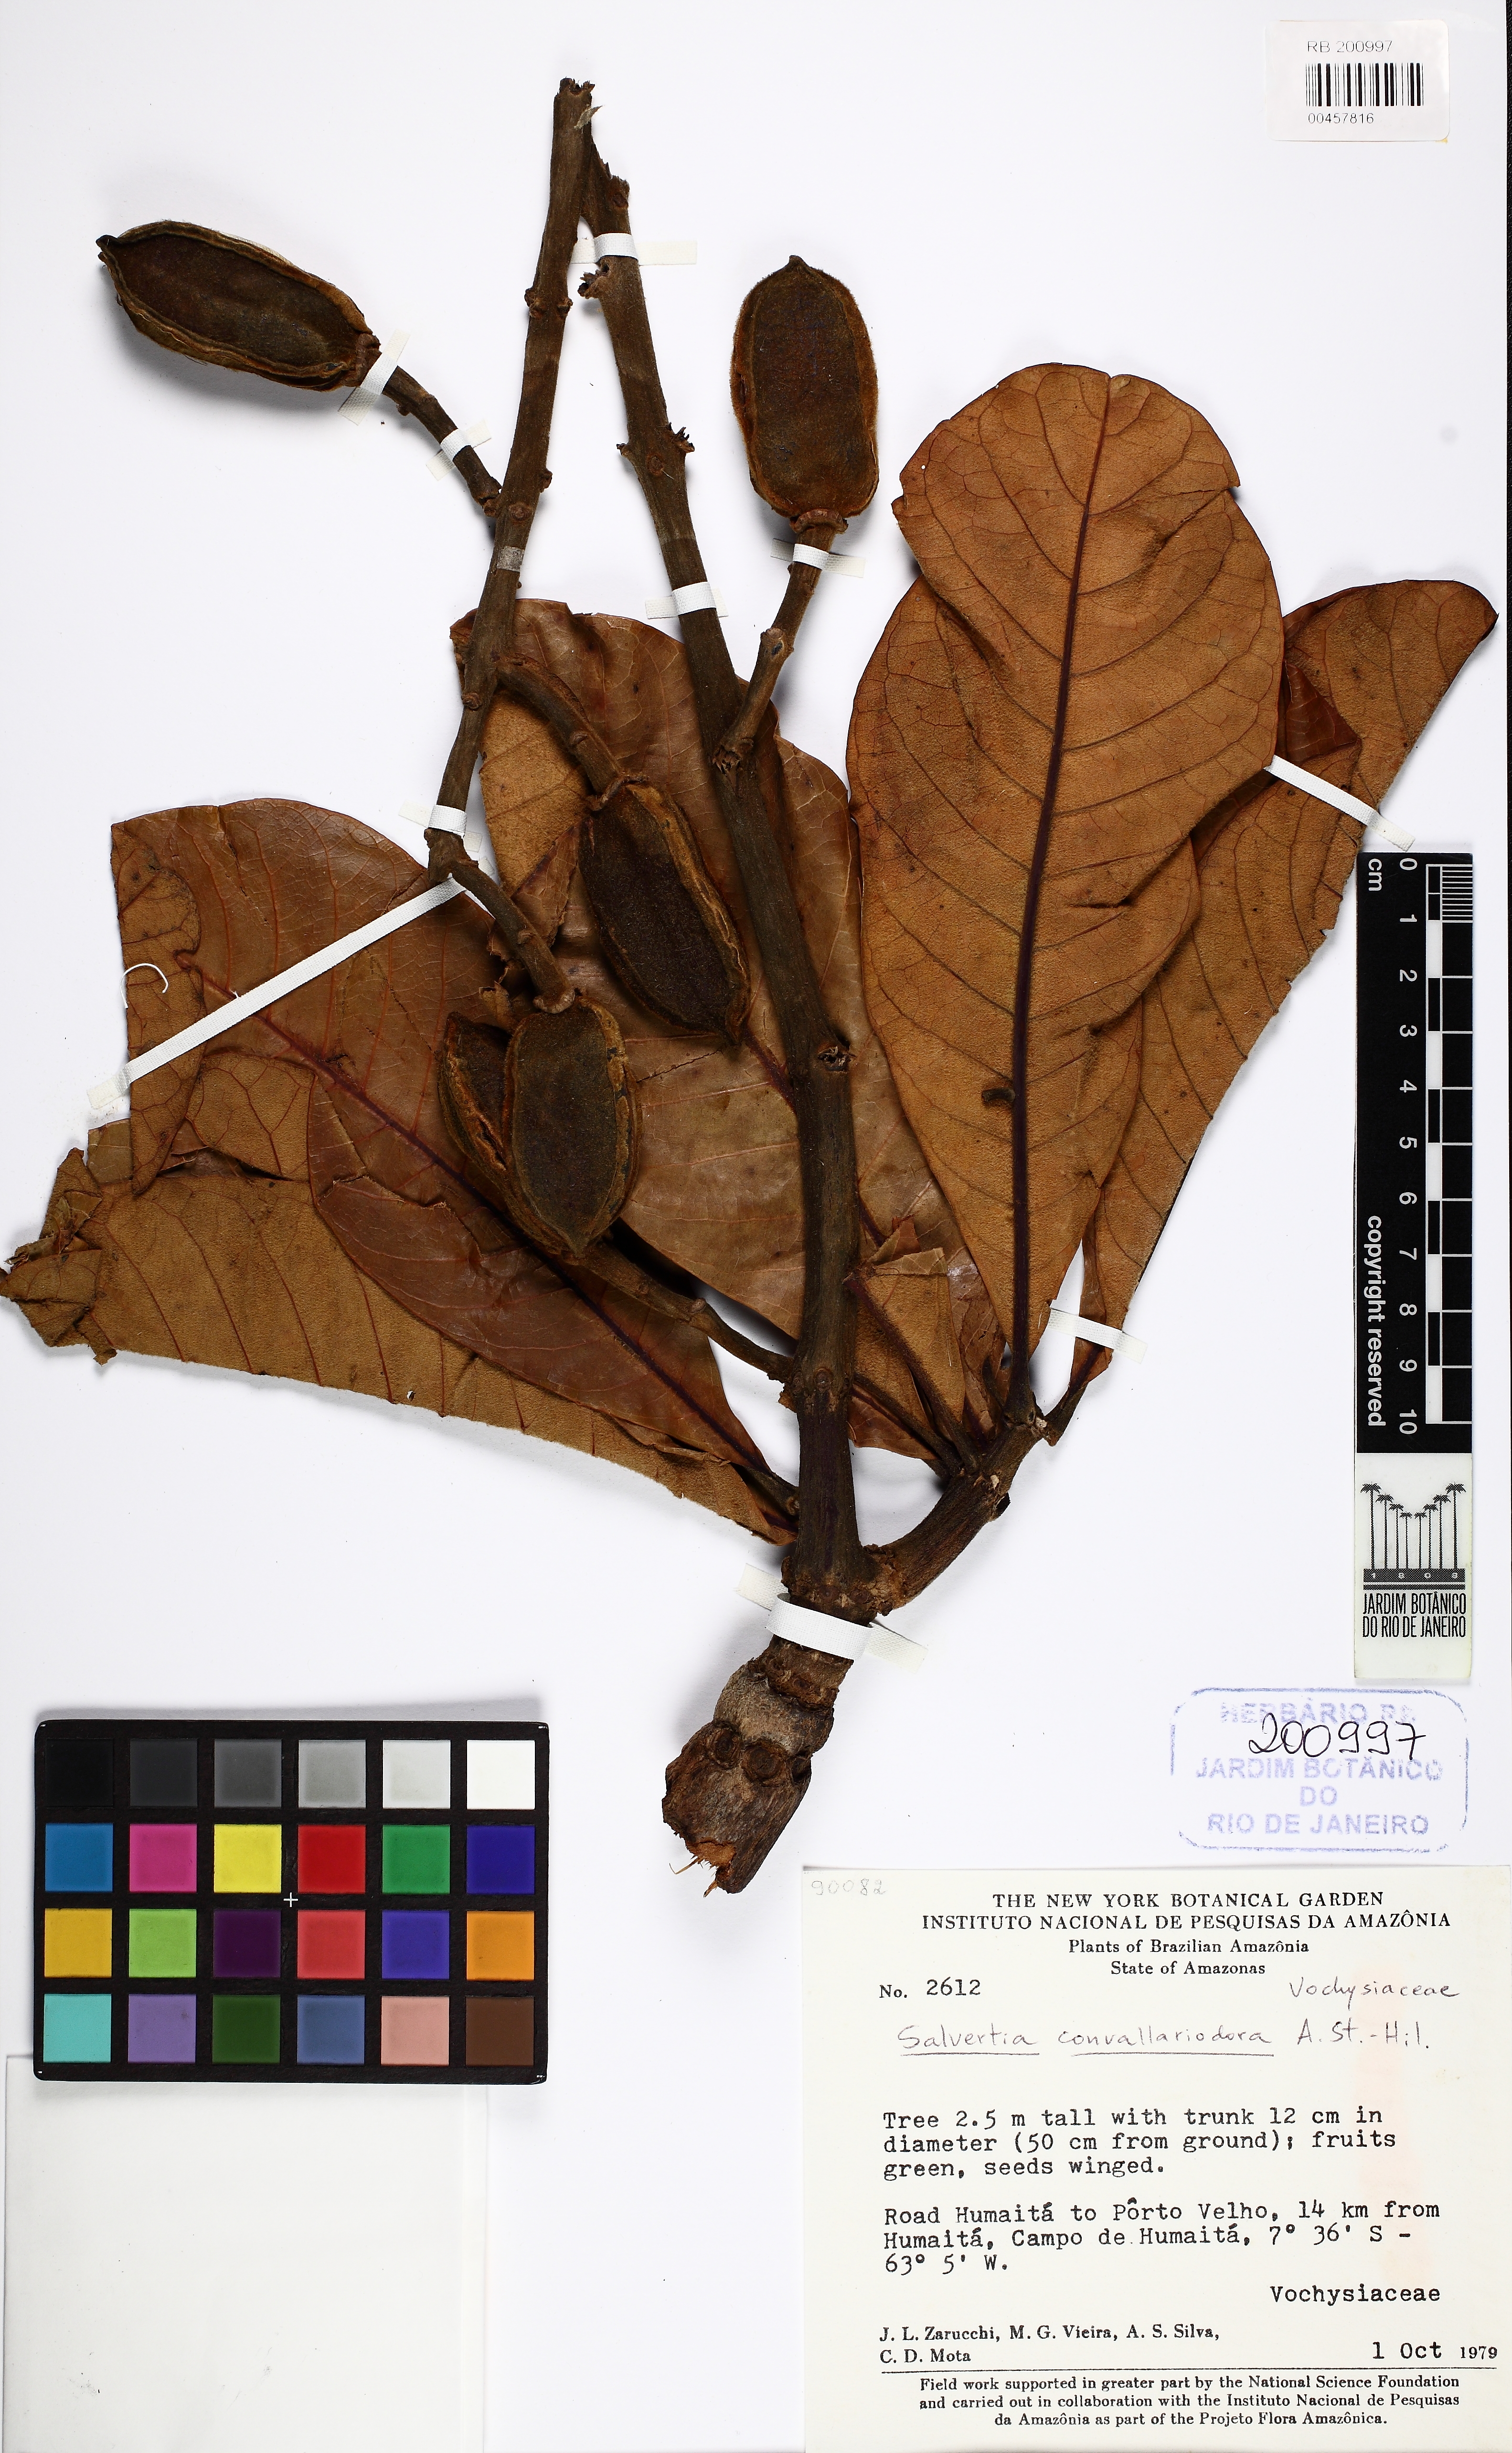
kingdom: Plantae
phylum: Tracheophyta
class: Magnoliopsida
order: Myrtales
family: Vochysiaceae
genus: Salvertia
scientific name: Salvertia convallariodora
